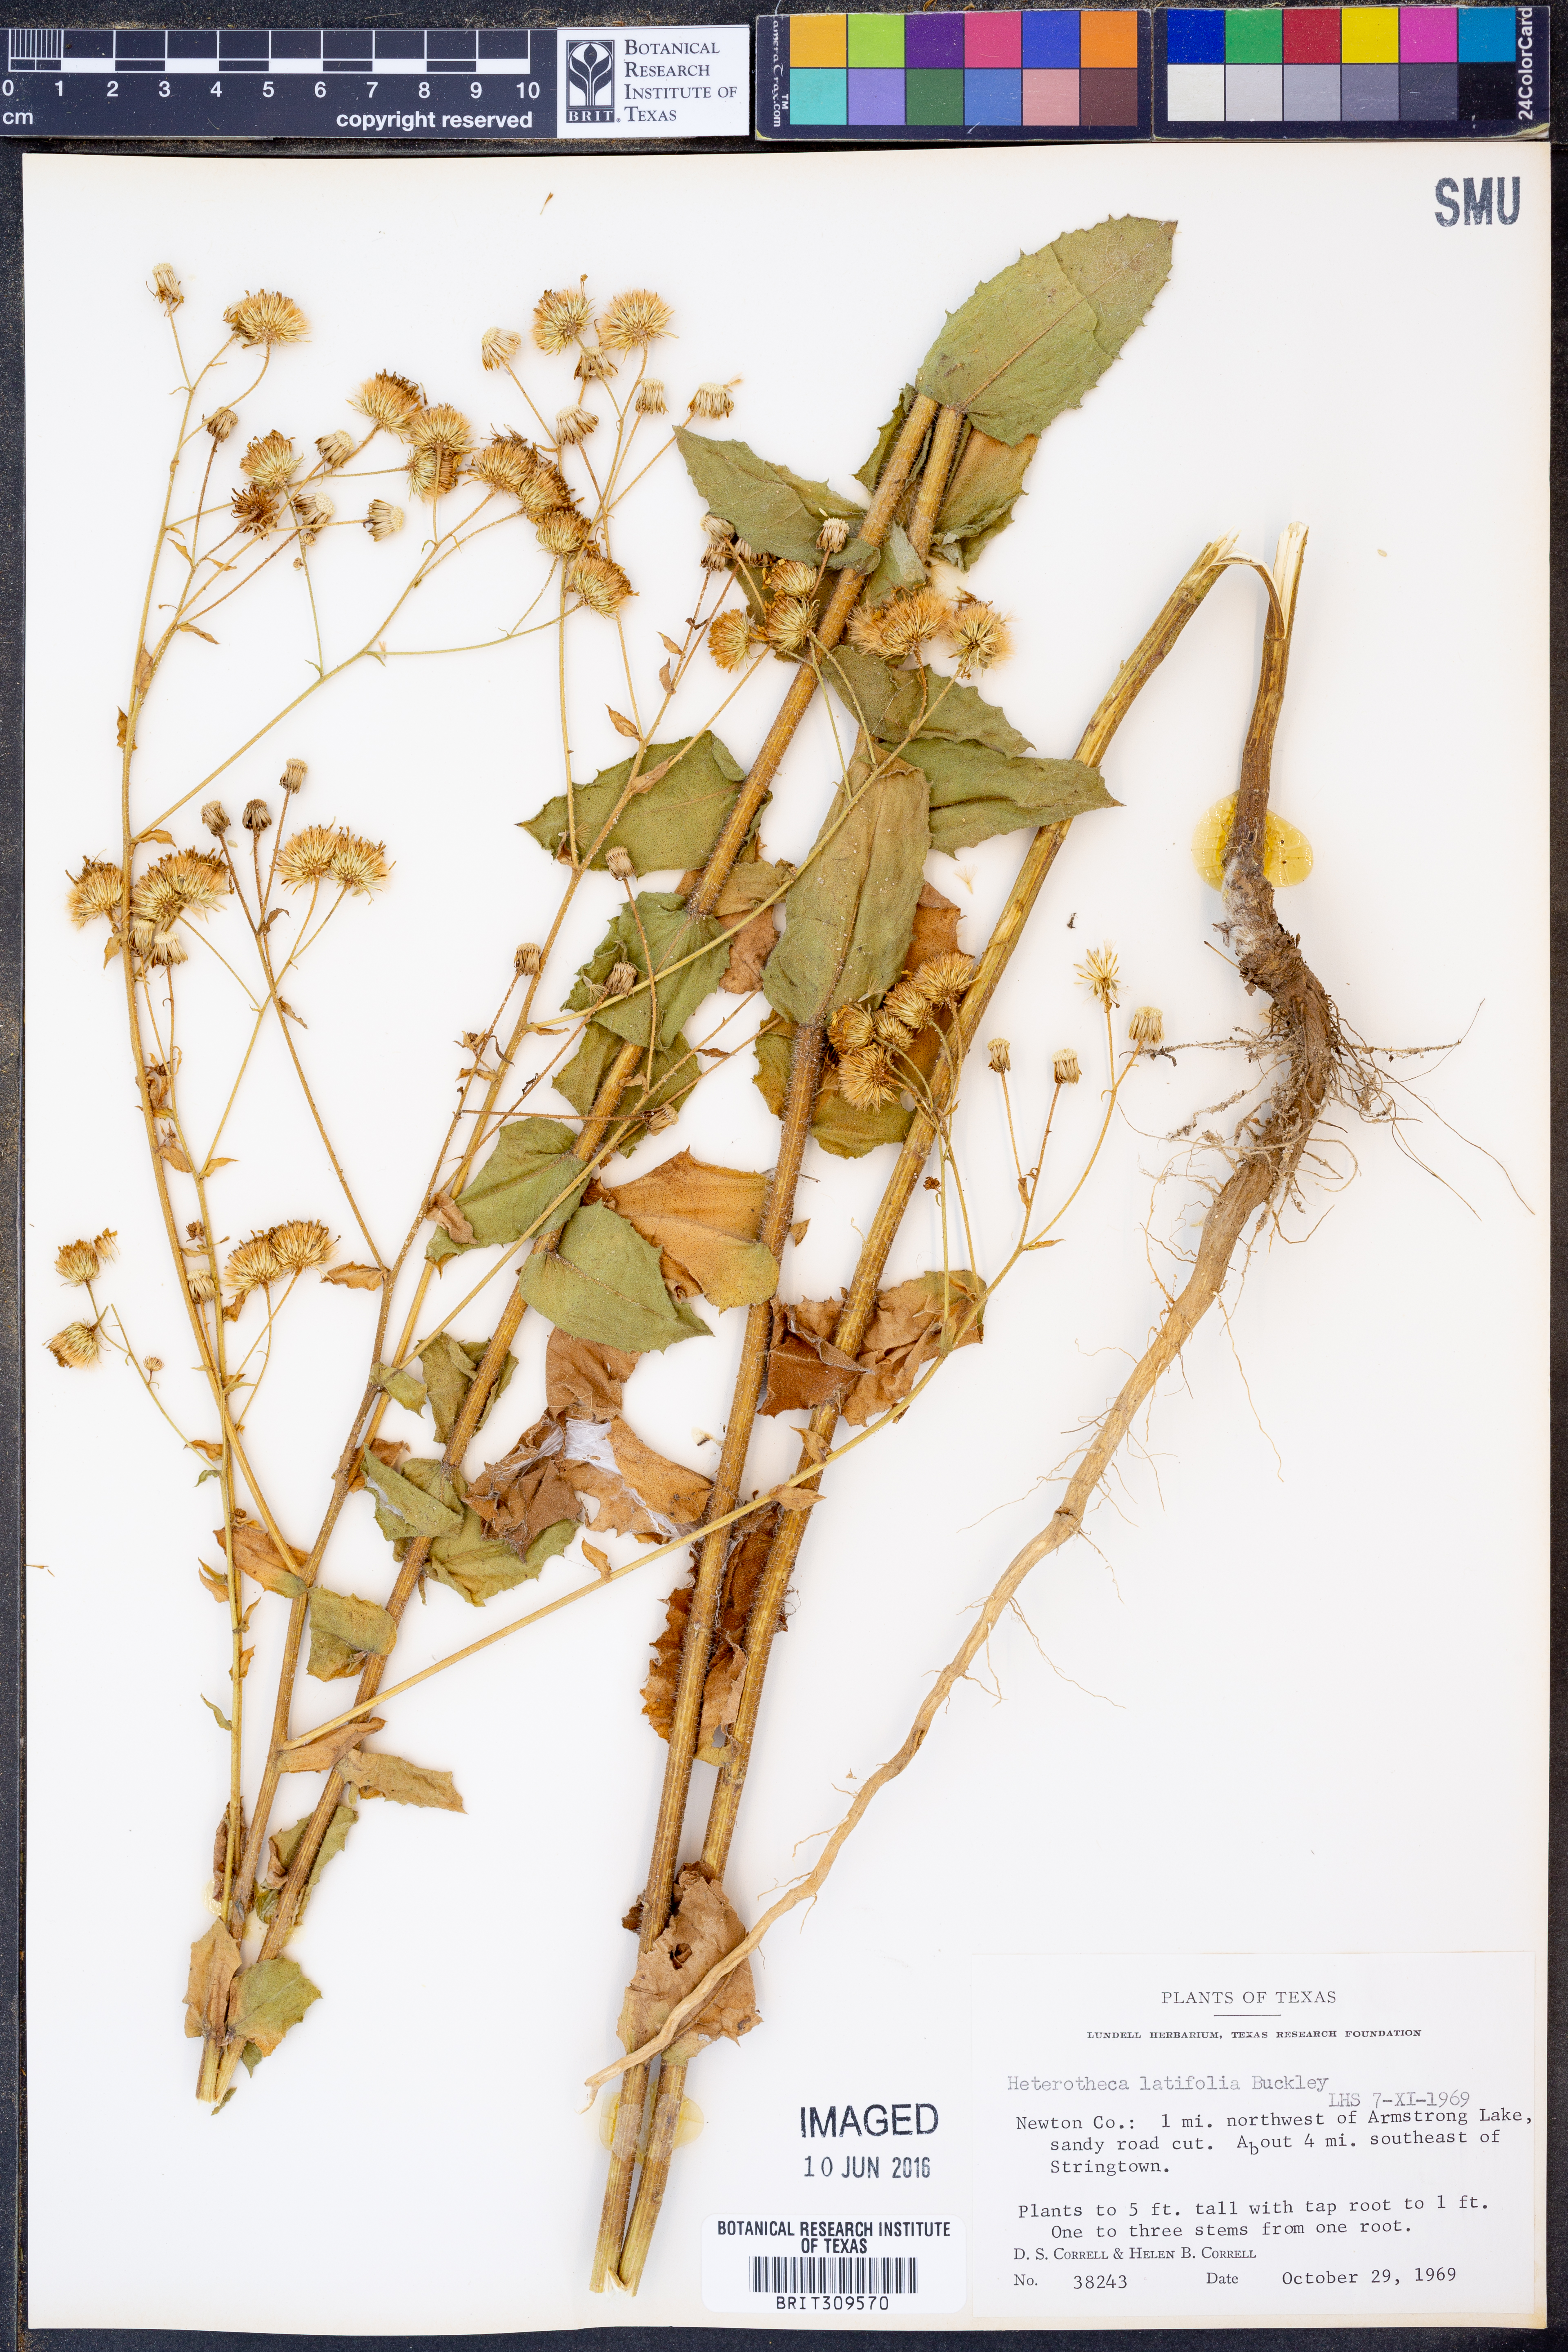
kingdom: Plantae
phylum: Tracheophyta
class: Magnoliopsida
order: Asterales
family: Asteraceae
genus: Heterotheca
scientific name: Heterotheca subaxillaris
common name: Camphorweed
